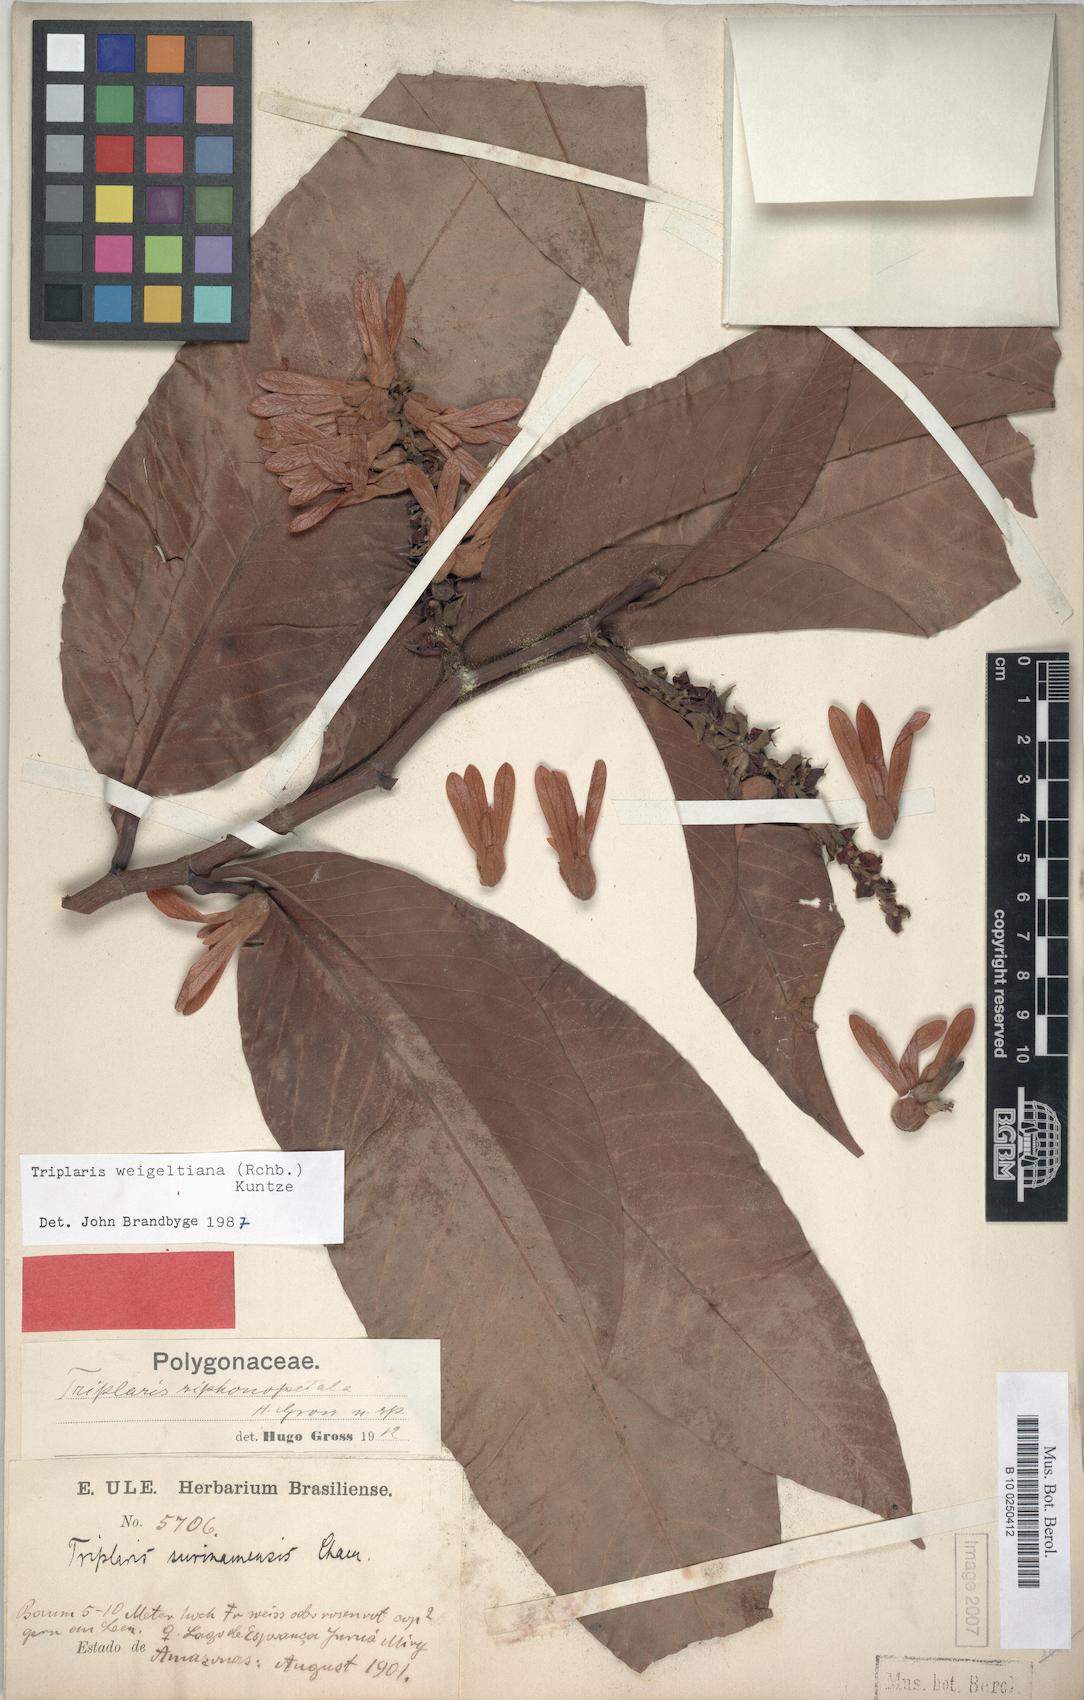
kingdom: Plantae
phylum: Tracheophyta
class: Magnoliopsida
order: Caryophyllales
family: Polygonaceae
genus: Triplaris
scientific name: Triplaris weigeltiana
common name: Long john
